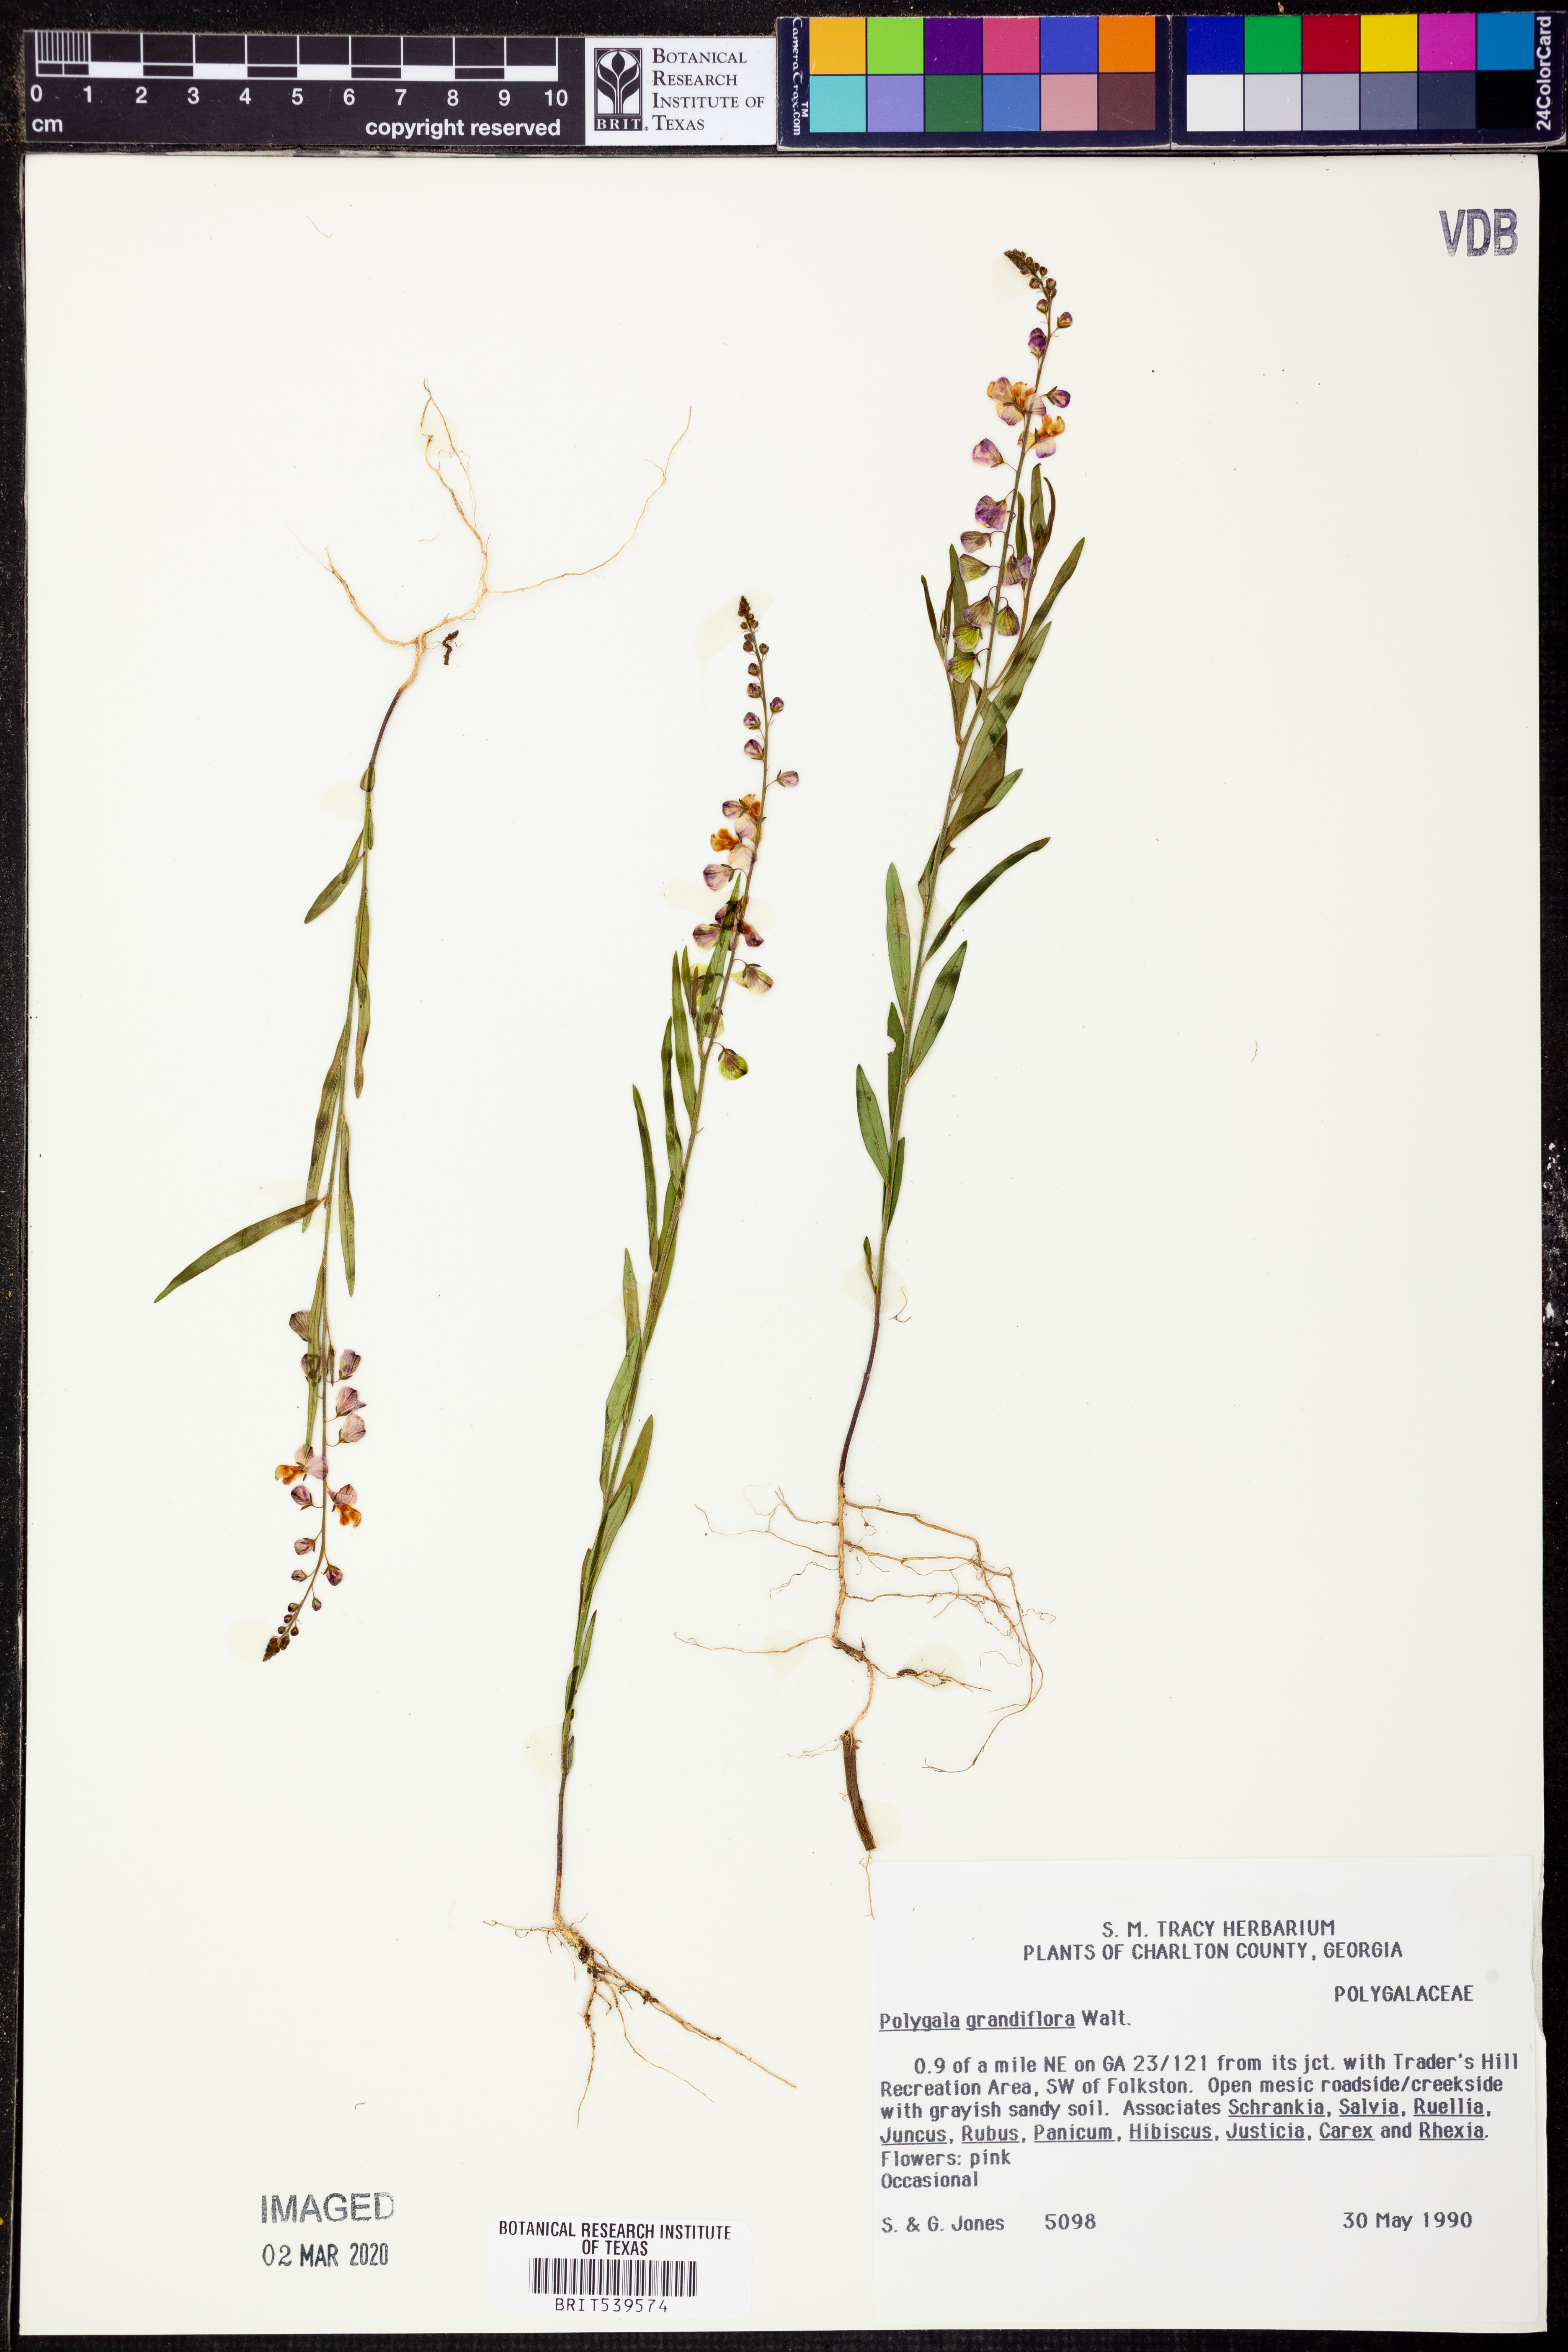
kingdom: Plantae
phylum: Tracheophyta
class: Magnoliopsida
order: Fabales
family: Polygalaceae
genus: Asemeia
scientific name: Asemeia grandiflora
